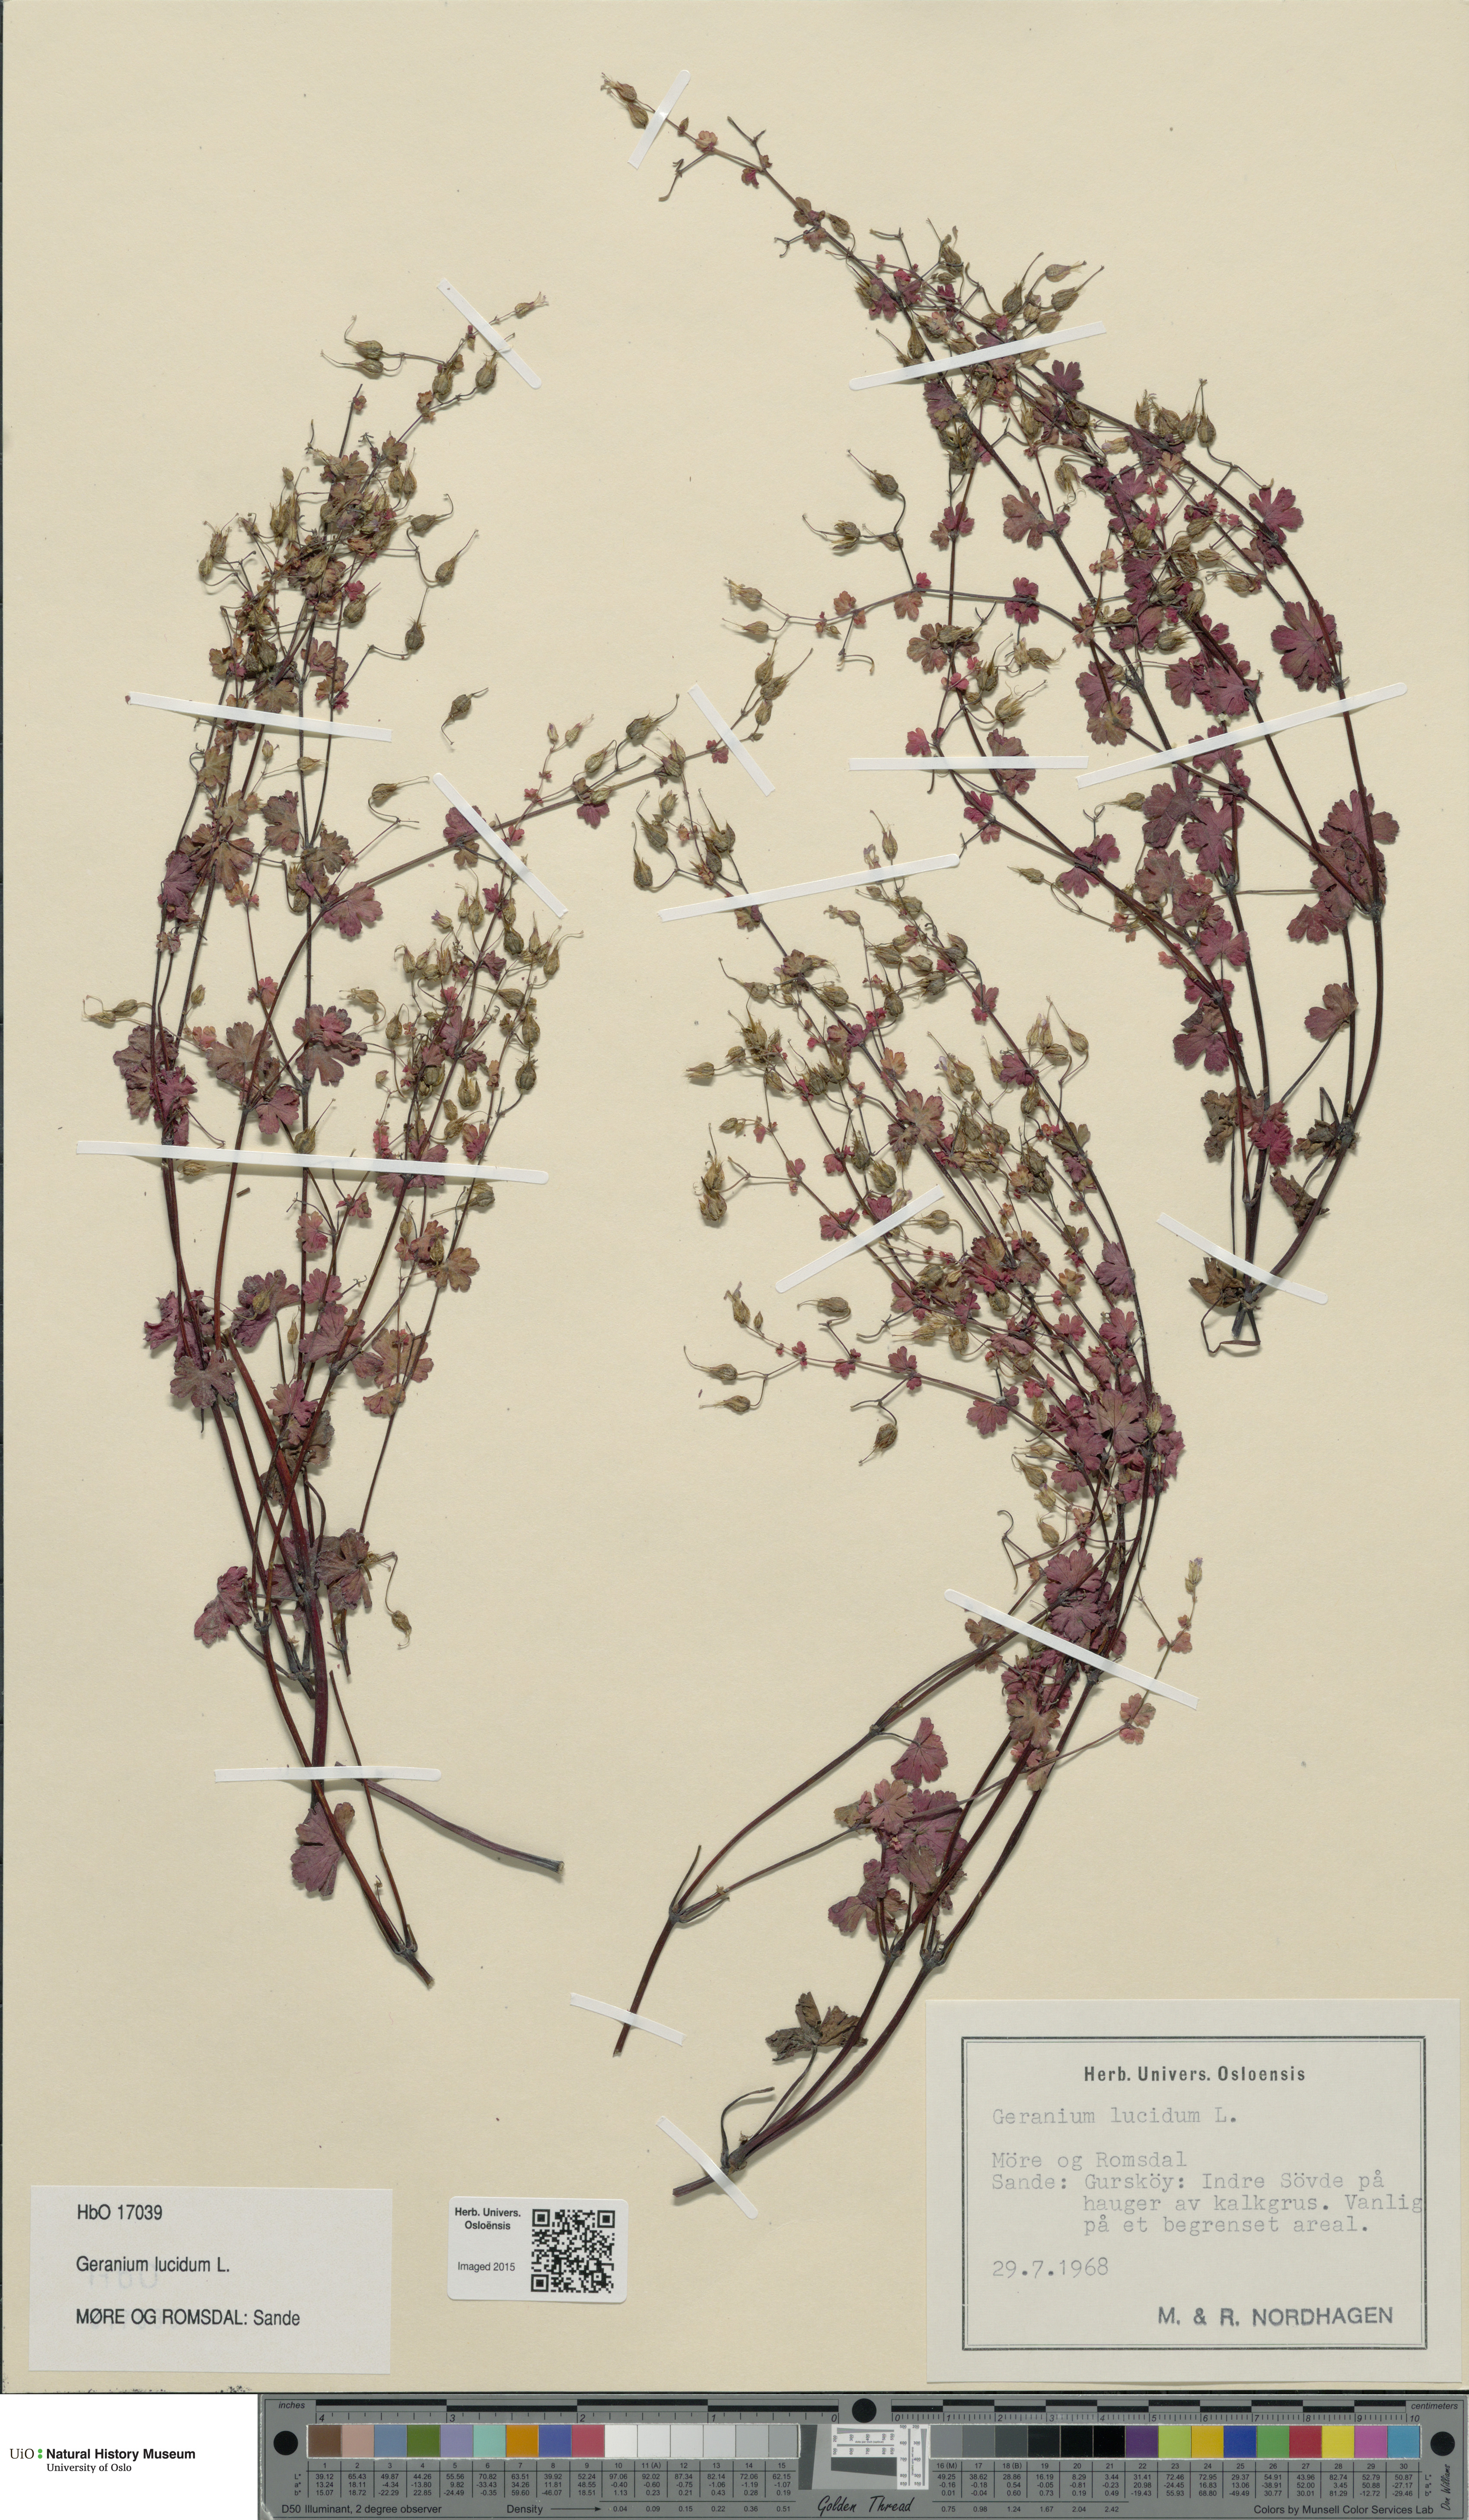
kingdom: Plantae
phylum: Tracheophyta
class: Magnoliopsida
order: Geraniales
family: Geraniaceae
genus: Geranium
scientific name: Geranium lucidum
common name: Shining crane's-bill
